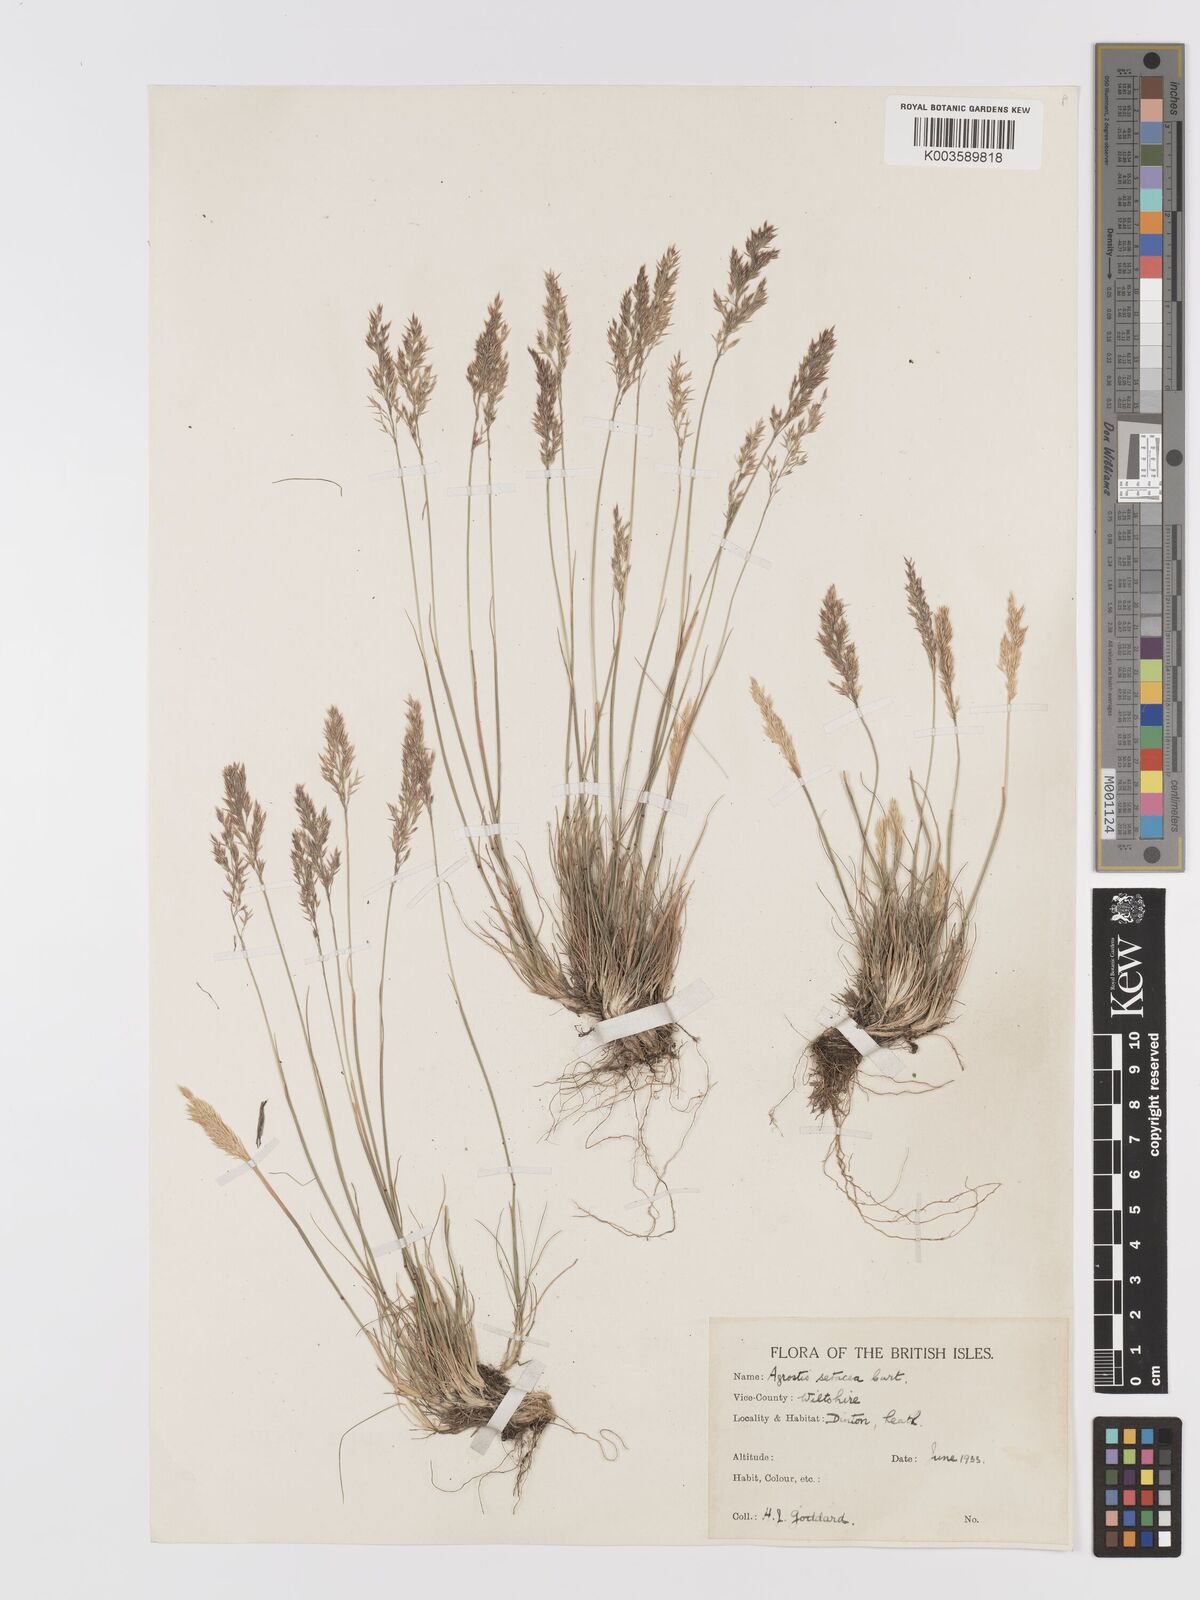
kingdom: Plantae
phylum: Tracheophyta
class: Liliopsida
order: Poales
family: Poaceae
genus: Alpagrostis
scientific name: Alpagrostis setacea
